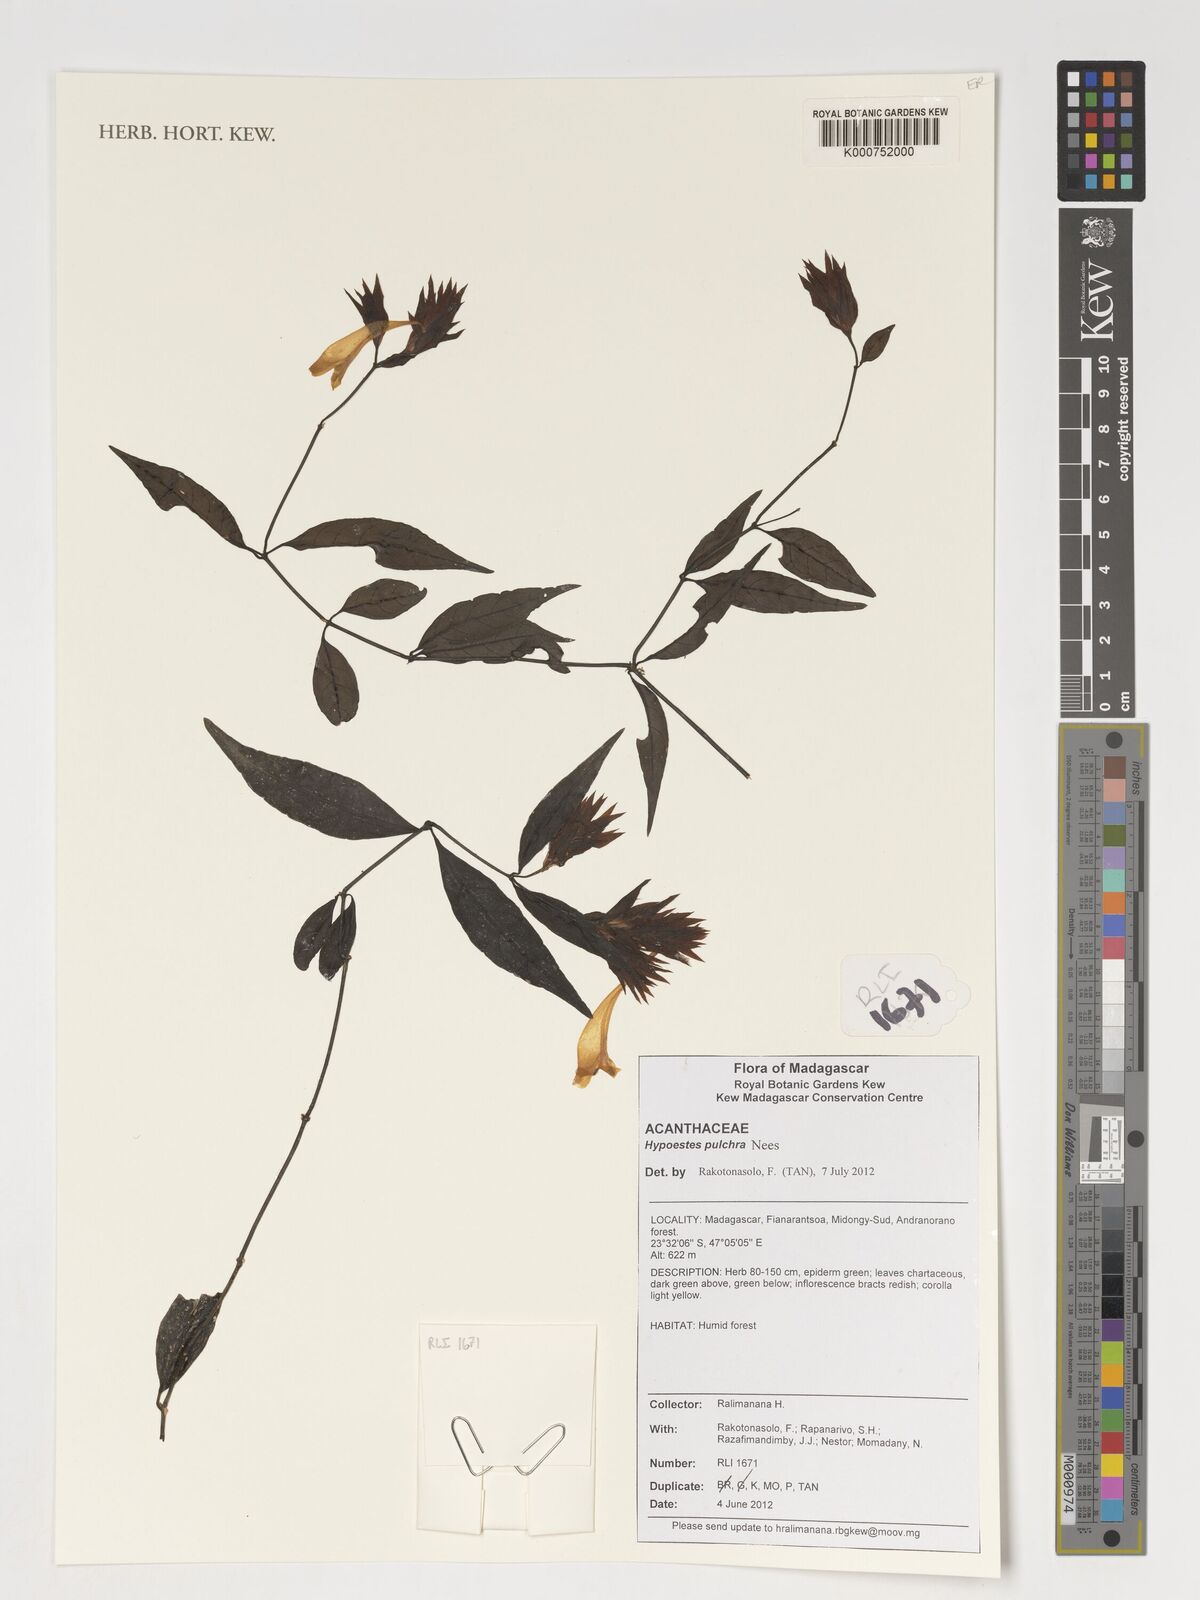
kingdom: Plantae
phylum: Tracheophyta
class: Magnoliopsida
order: Lamiales
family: Acanthaceae
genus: Hypoestes
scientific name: Hypoestes pulchra
